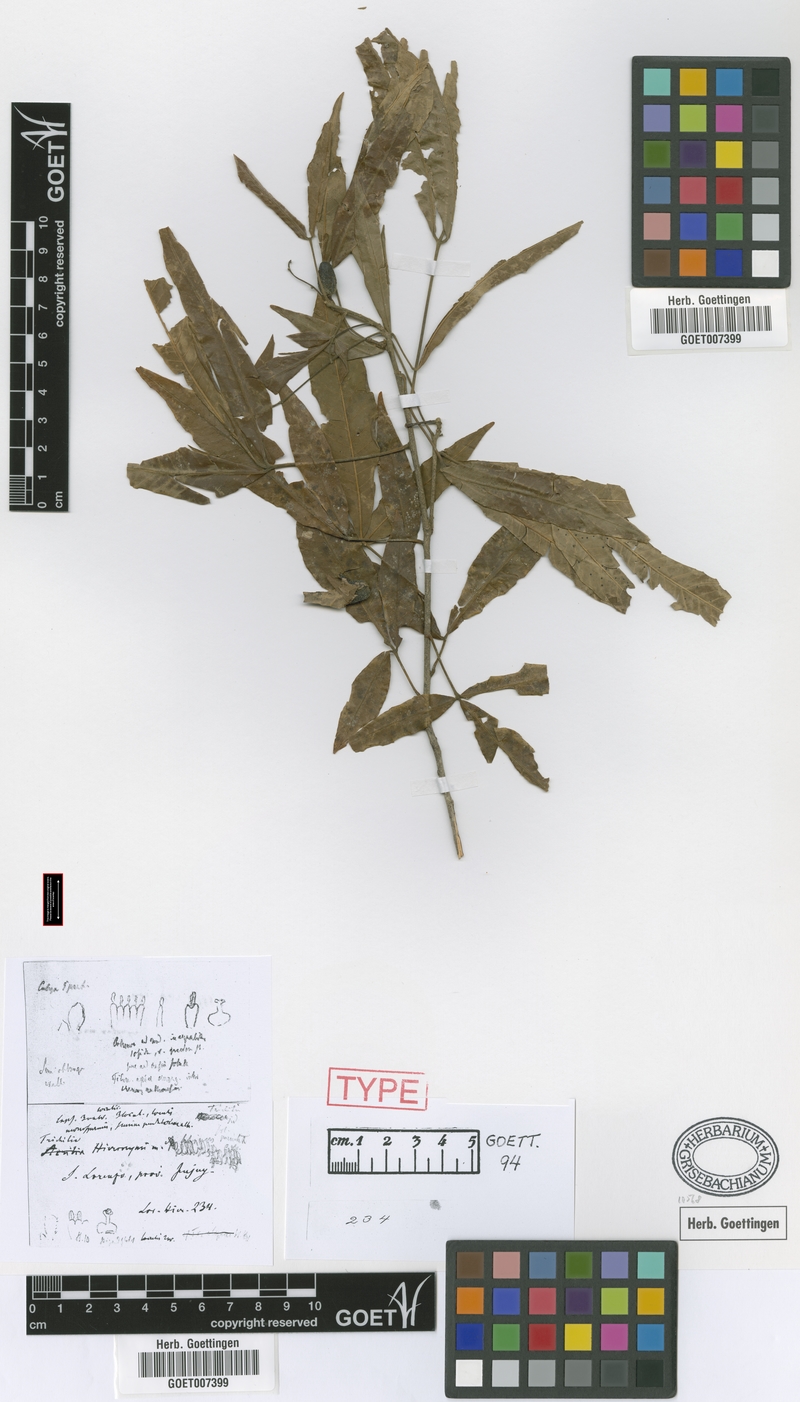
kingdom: Plantae
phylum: Tracheophyta
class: Magnoliopsida
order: Sapindales
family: Meliaceae
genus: Trichilia
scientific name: Trichilia claussenii
